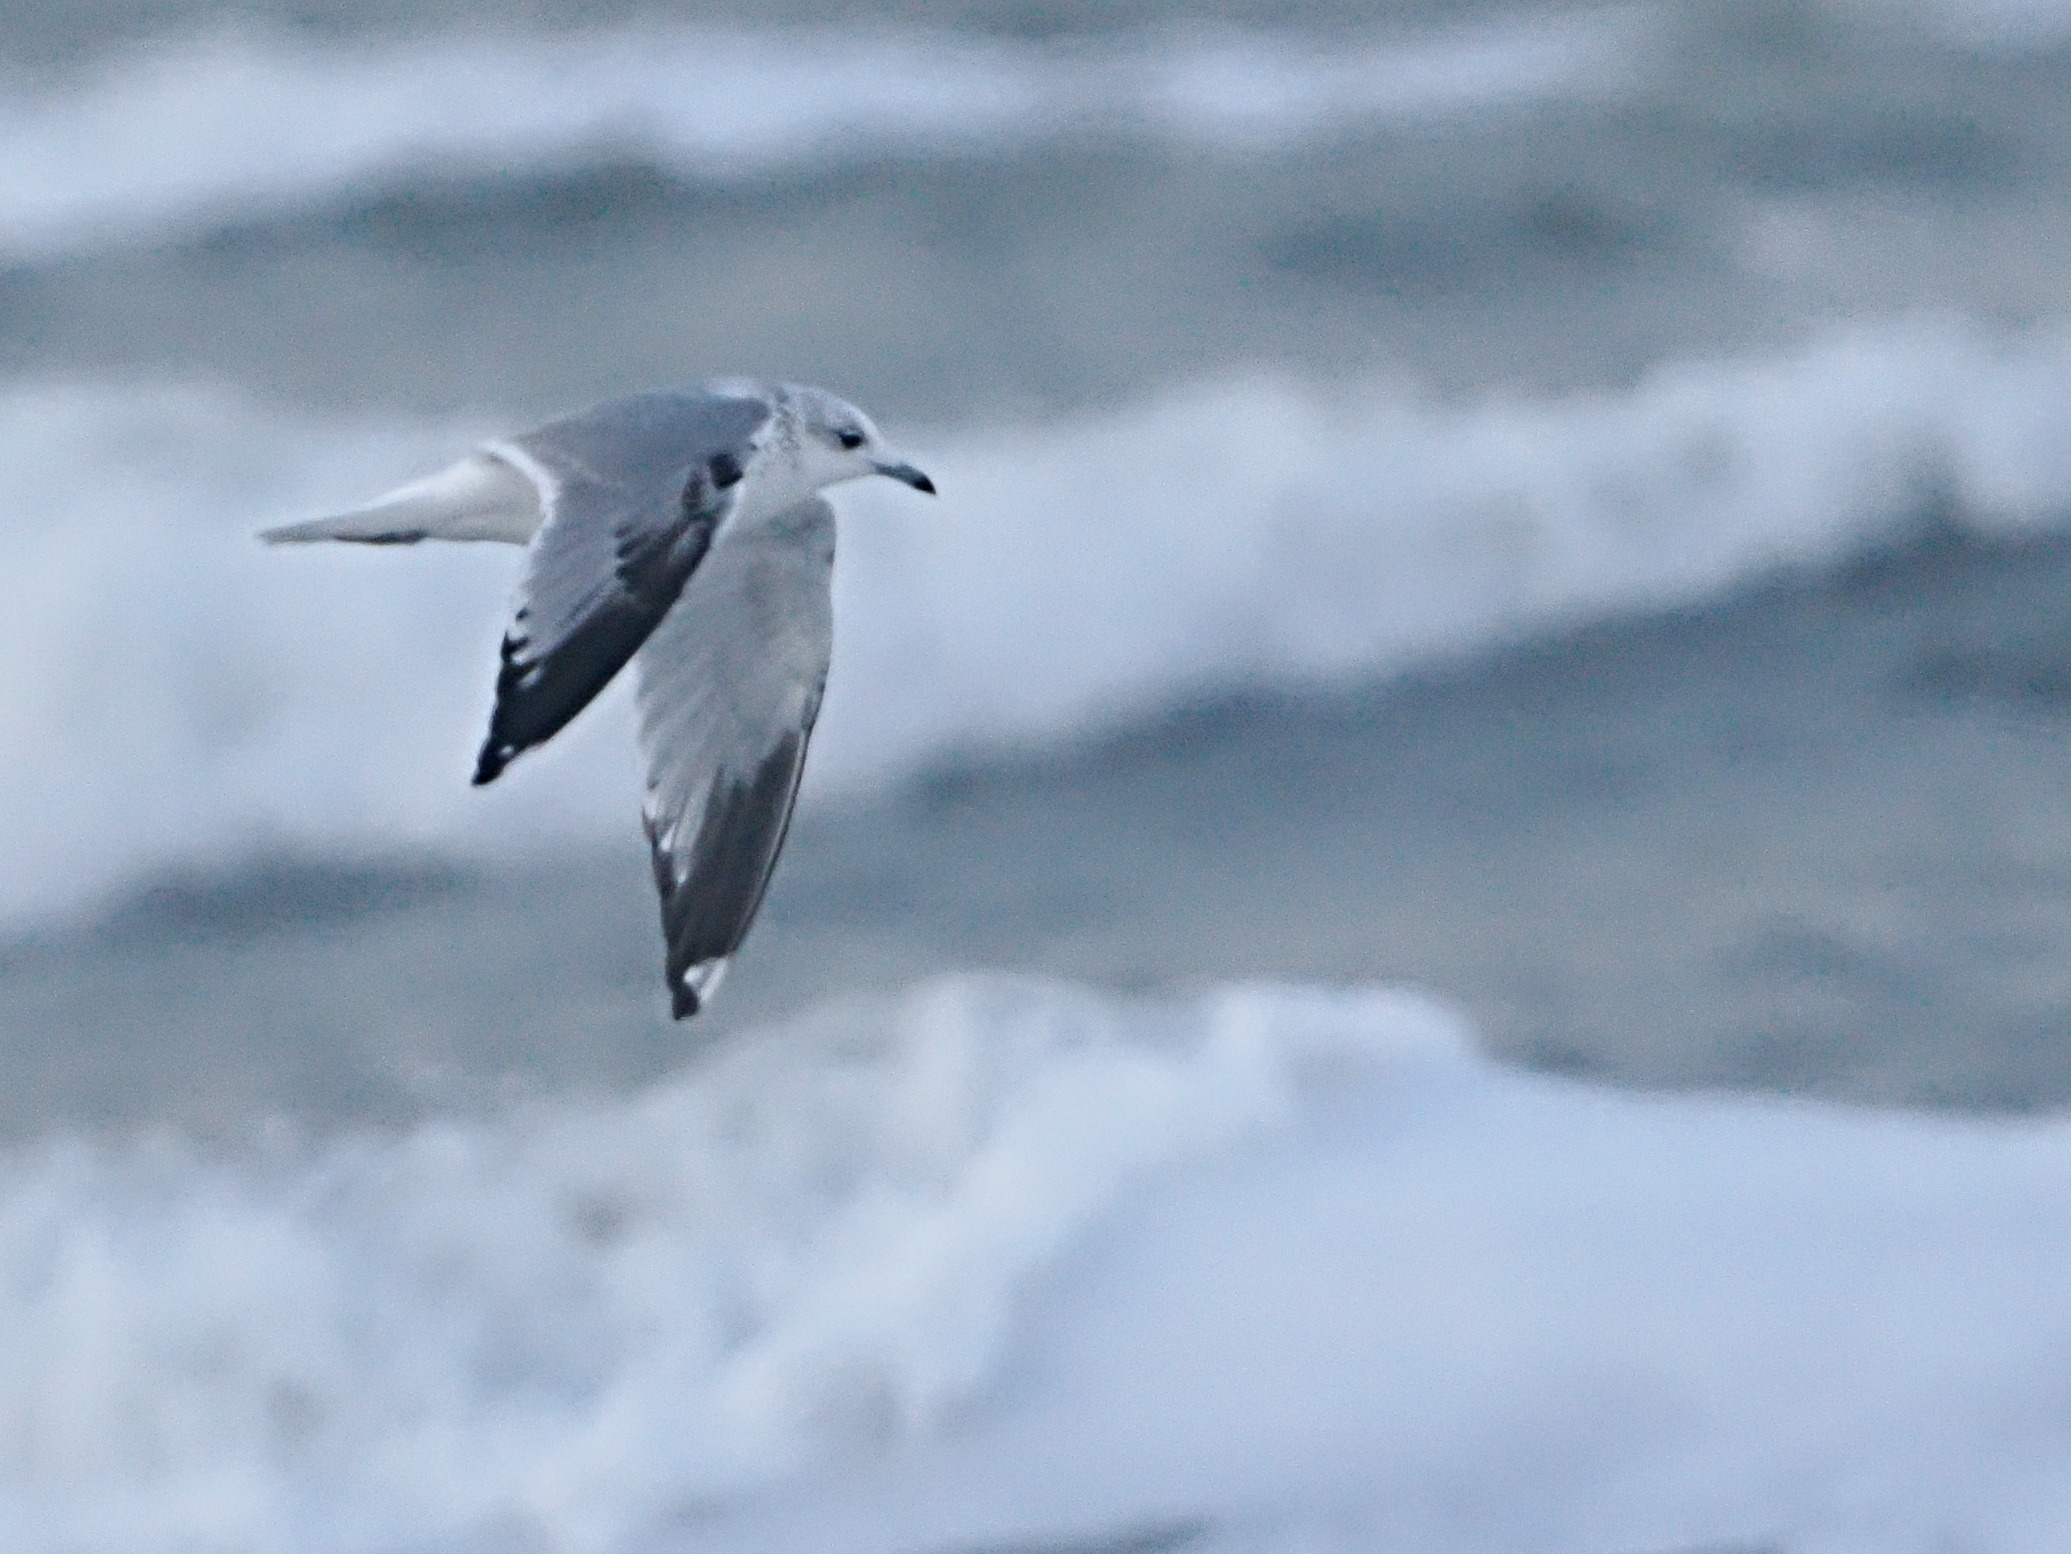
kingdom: Animalia
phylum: Chordata
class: Aves
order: Charadriiformes
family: Laridae
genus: Larus
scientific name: Larus canus
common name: Stormmåge
